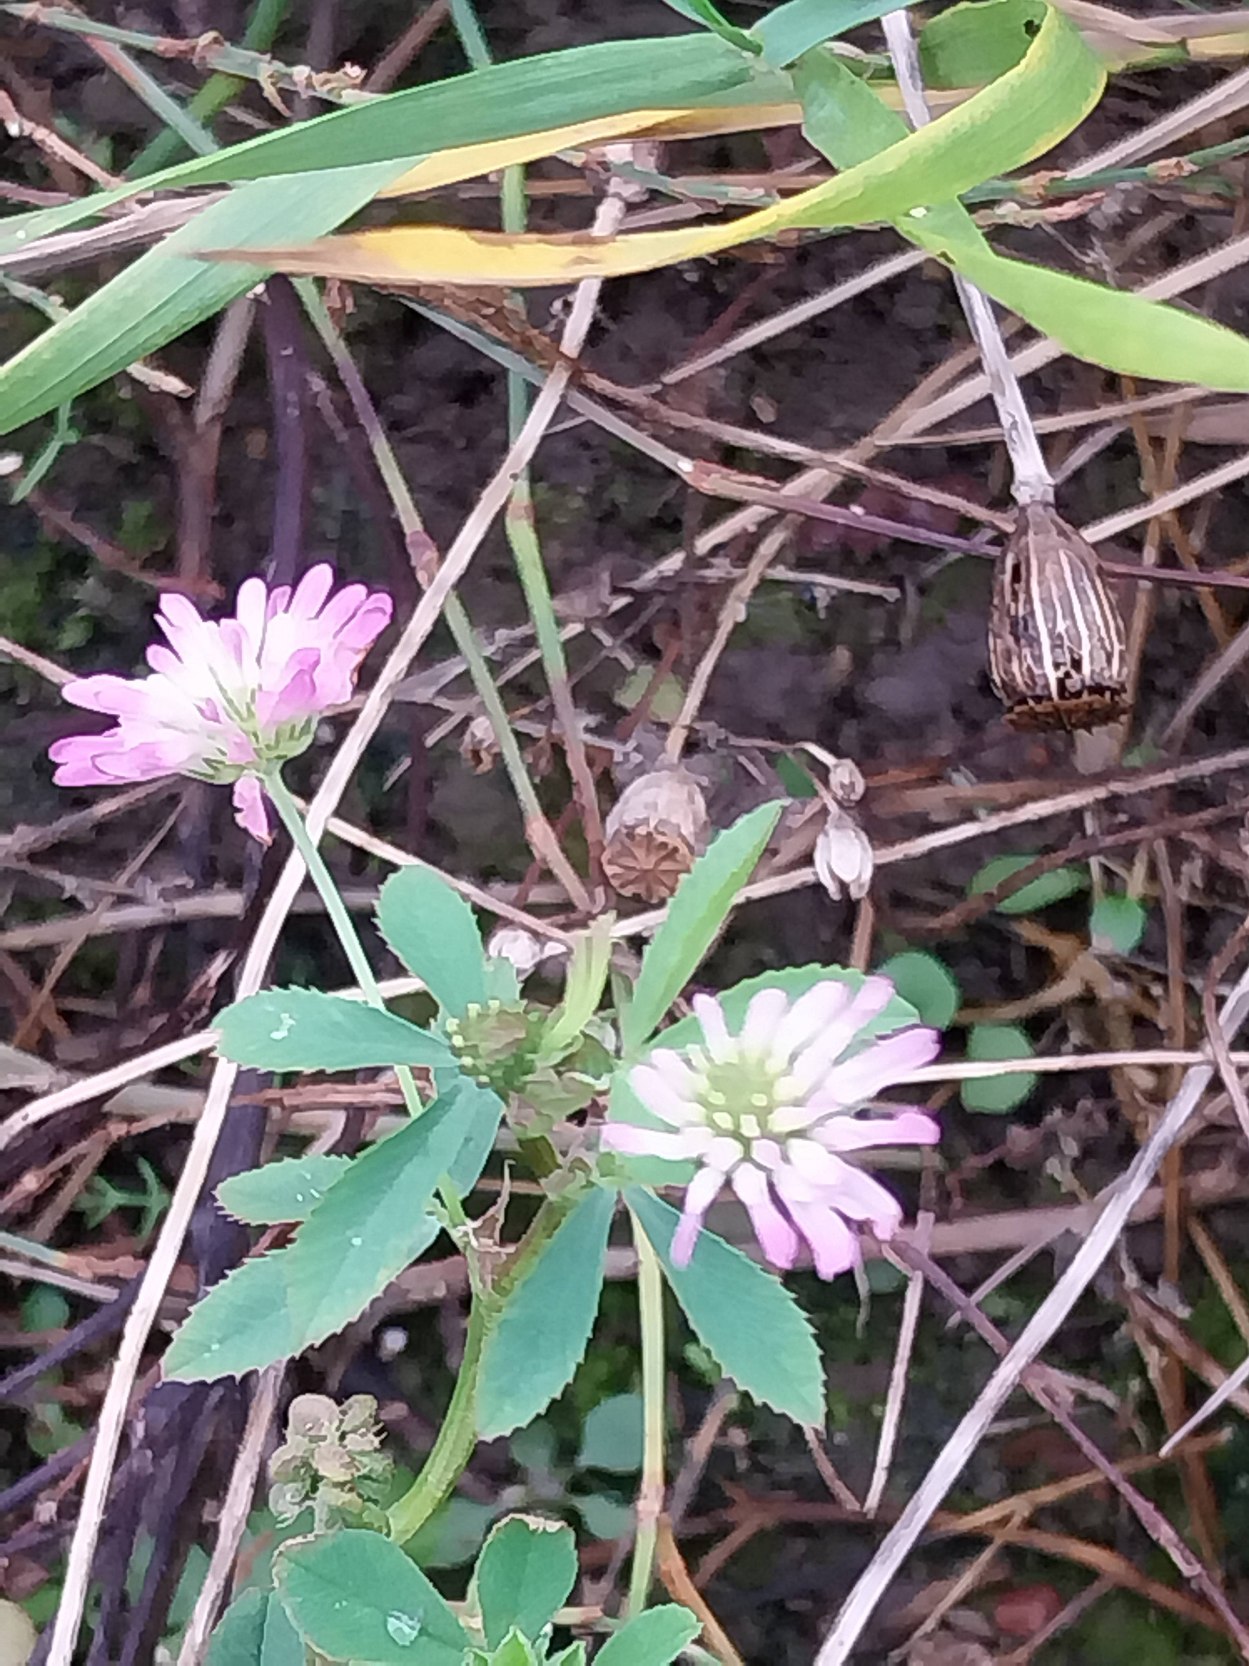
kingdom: Plantae
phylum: Tracheophyta
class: Magnoliopsida
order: Fabales
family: Fabaceae
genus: Trifolium
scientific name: Trifolium resupinatum
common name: Omvendt kløver
